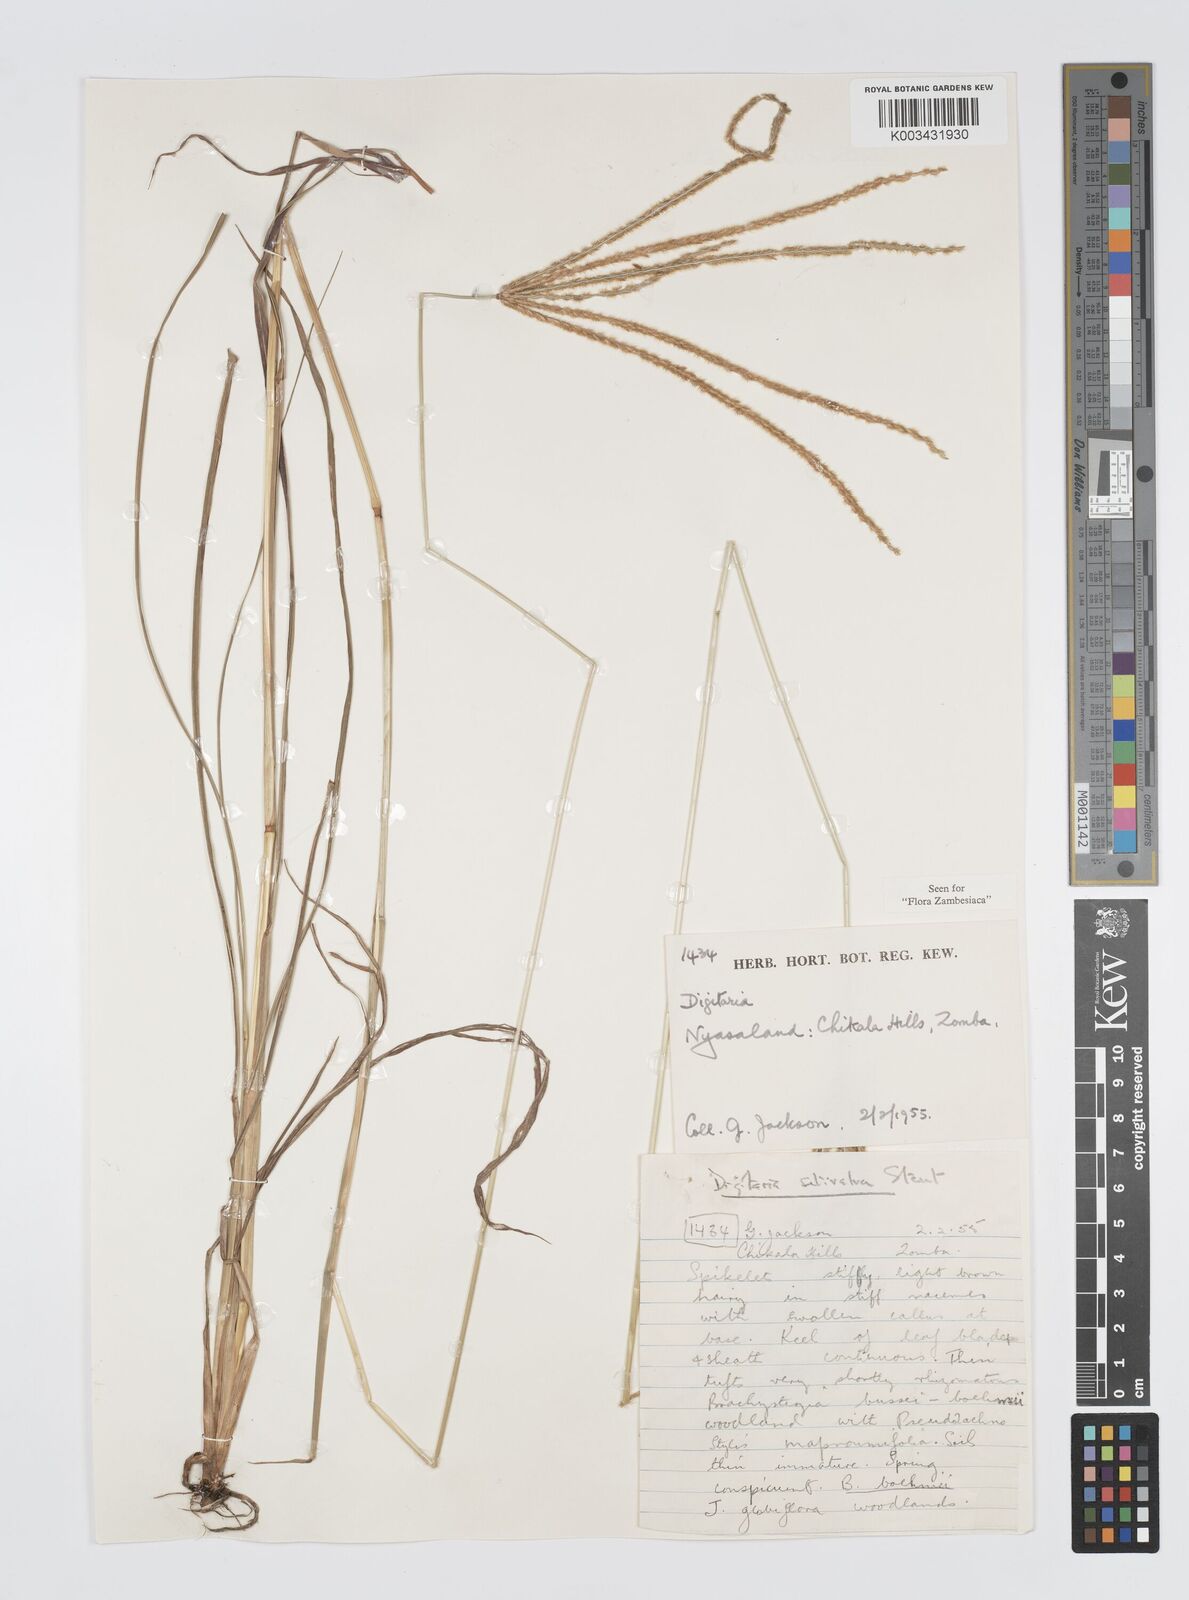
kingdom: Plantae
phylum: Tracheophyta
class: Liliopsida
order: Poales
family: Poaceae
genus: Digitaria
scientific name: Digitaria milanjiana
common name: Madagascar crabgrass
